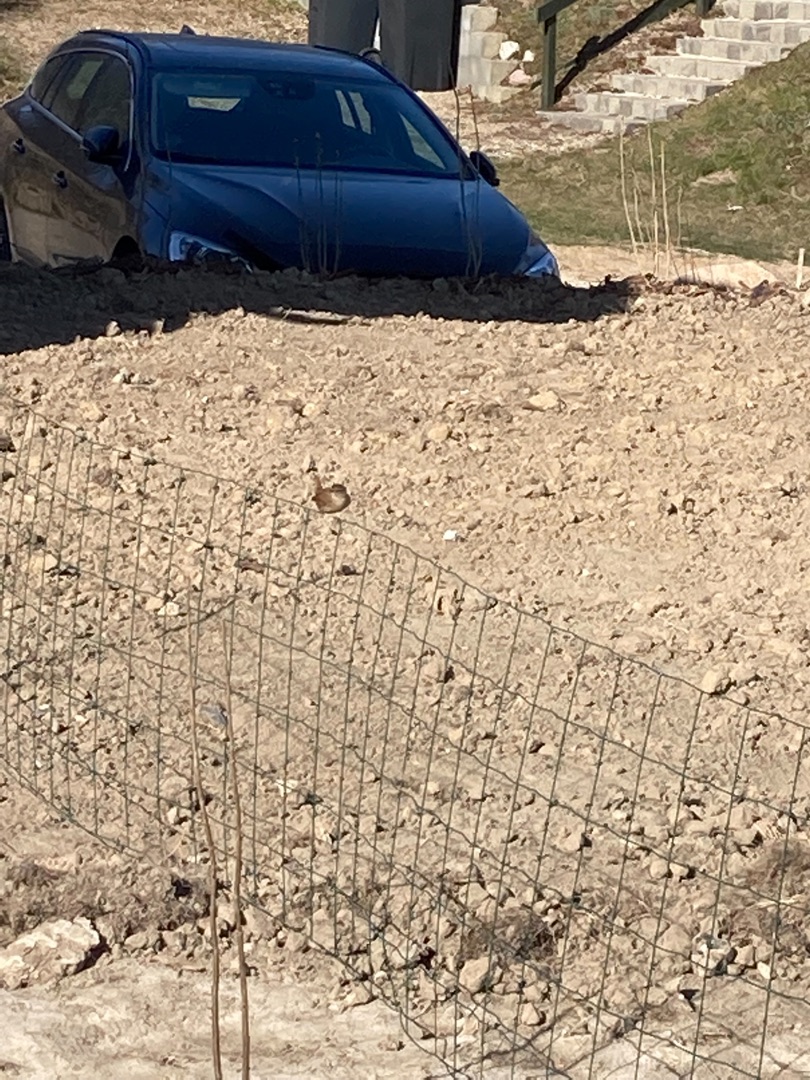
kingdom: Animalia
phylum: Chordata
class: Aves
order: Passeriformes
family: Troglodytidae
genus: Troglodytes
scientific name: Troglodytes troglodytes
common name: Gærdesmutte
